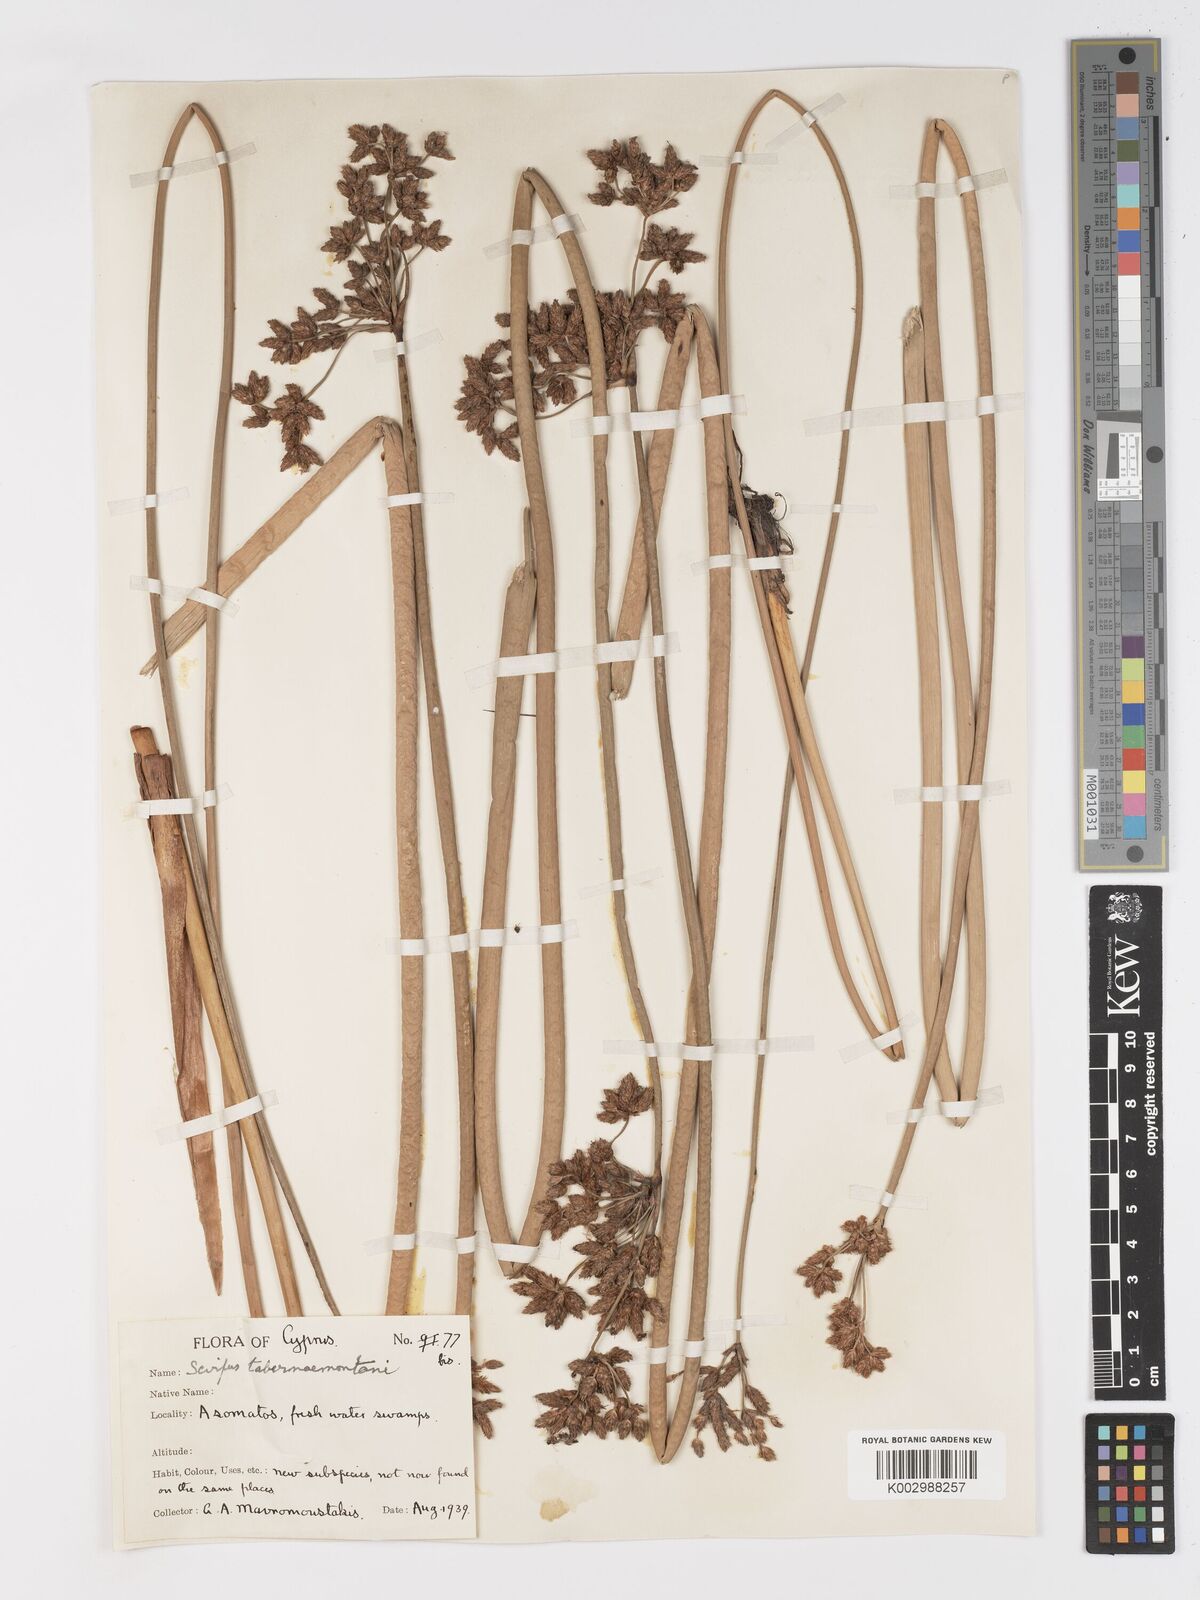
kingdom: Plantae
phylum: Tracheophyta
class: Liliopsida
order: Poales
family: Cyperaceae
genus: Schoenoplectus
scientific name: Schoenoplectus
